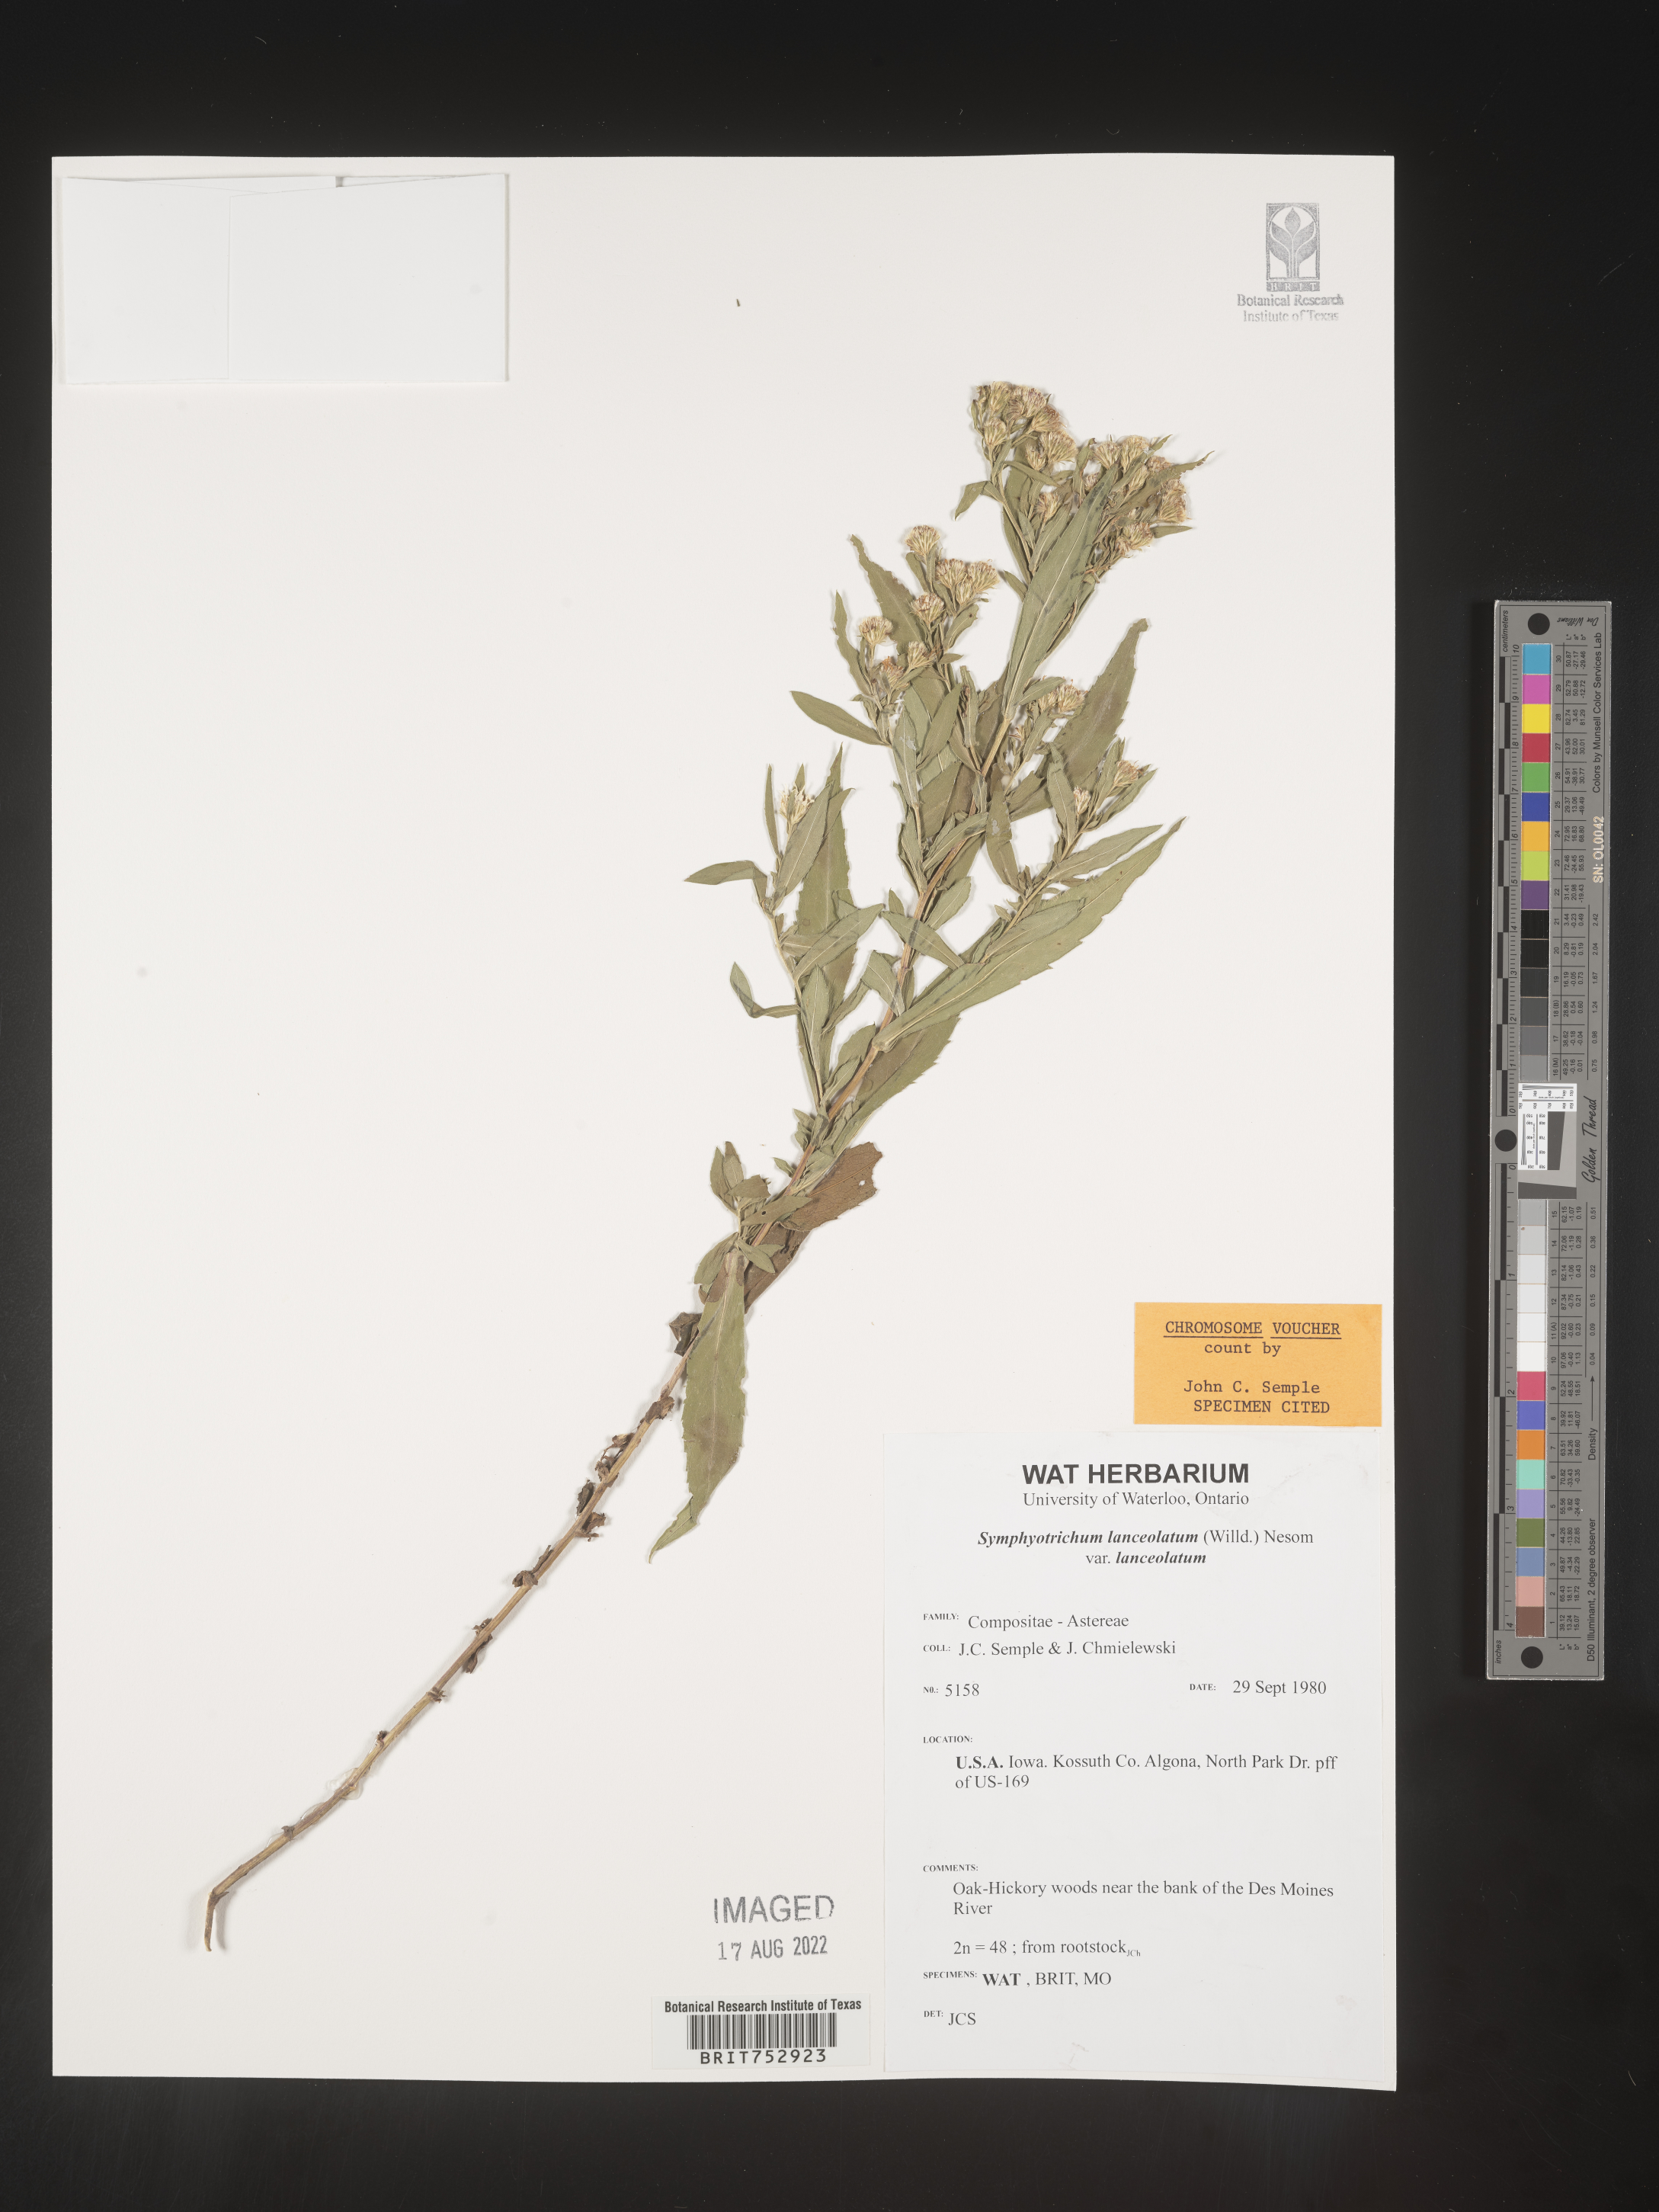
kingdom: Plantae
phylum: Tracheophyta
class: Magnoliopsida
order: Asterales
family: Asteraceae
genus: Symphyotrichum
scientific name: Symphyotrichum lanceolatum
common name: Panicled aster
